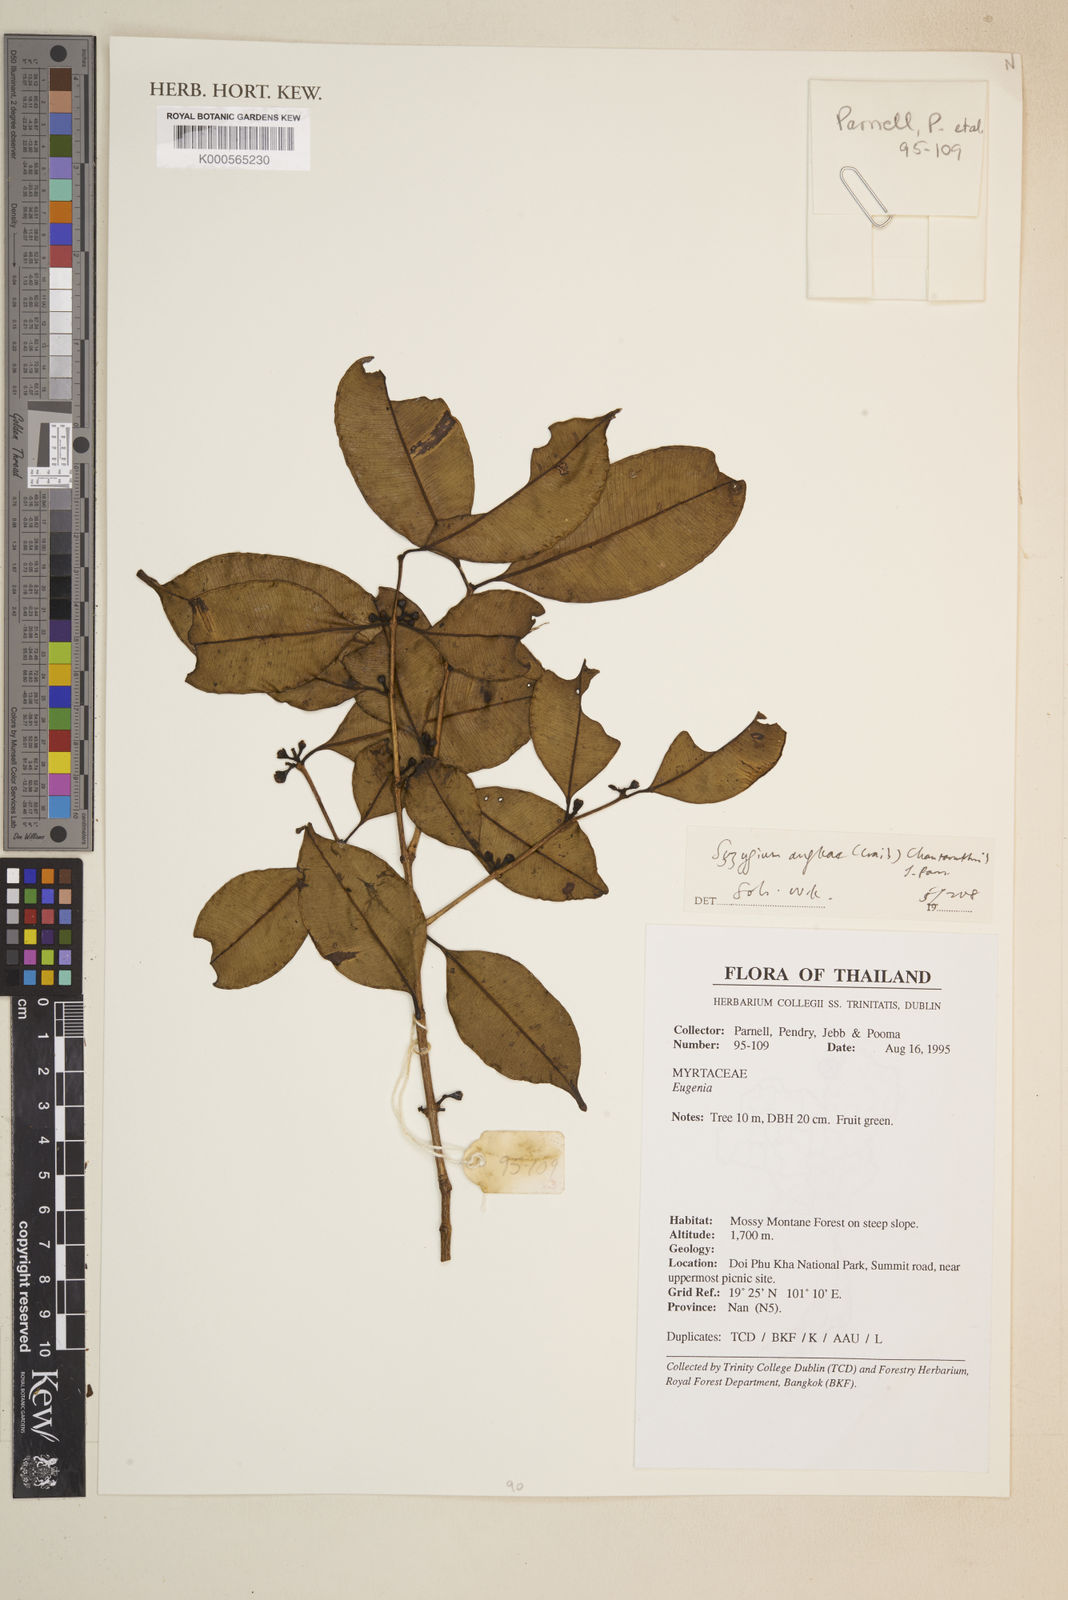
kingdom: Plantae
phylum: Tracheophyta
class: Magnoliopsida
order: Myrtales
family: Myrtaceae
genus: Syzygium
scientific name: Syzygium angkae
